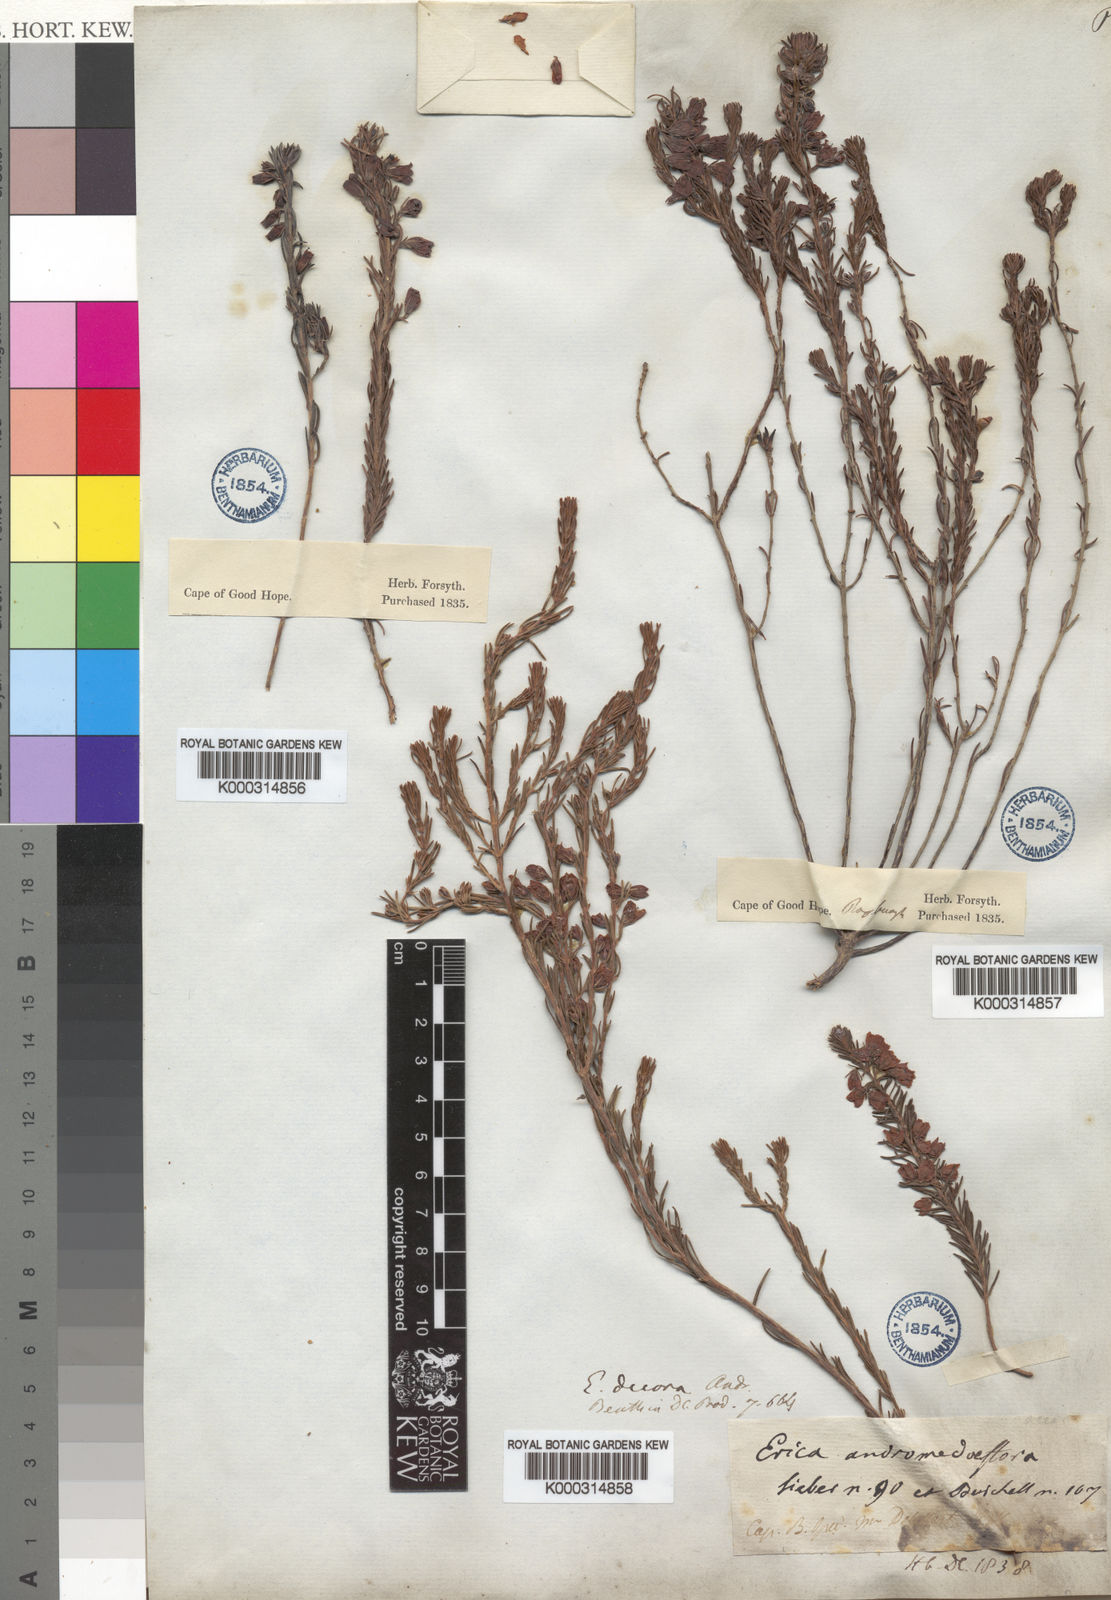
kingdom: Plantae
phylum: Tracheophyta
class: Magnoliopsida
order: Ericales
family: Ericaceae
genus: Erica
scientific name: Erica viscaria
